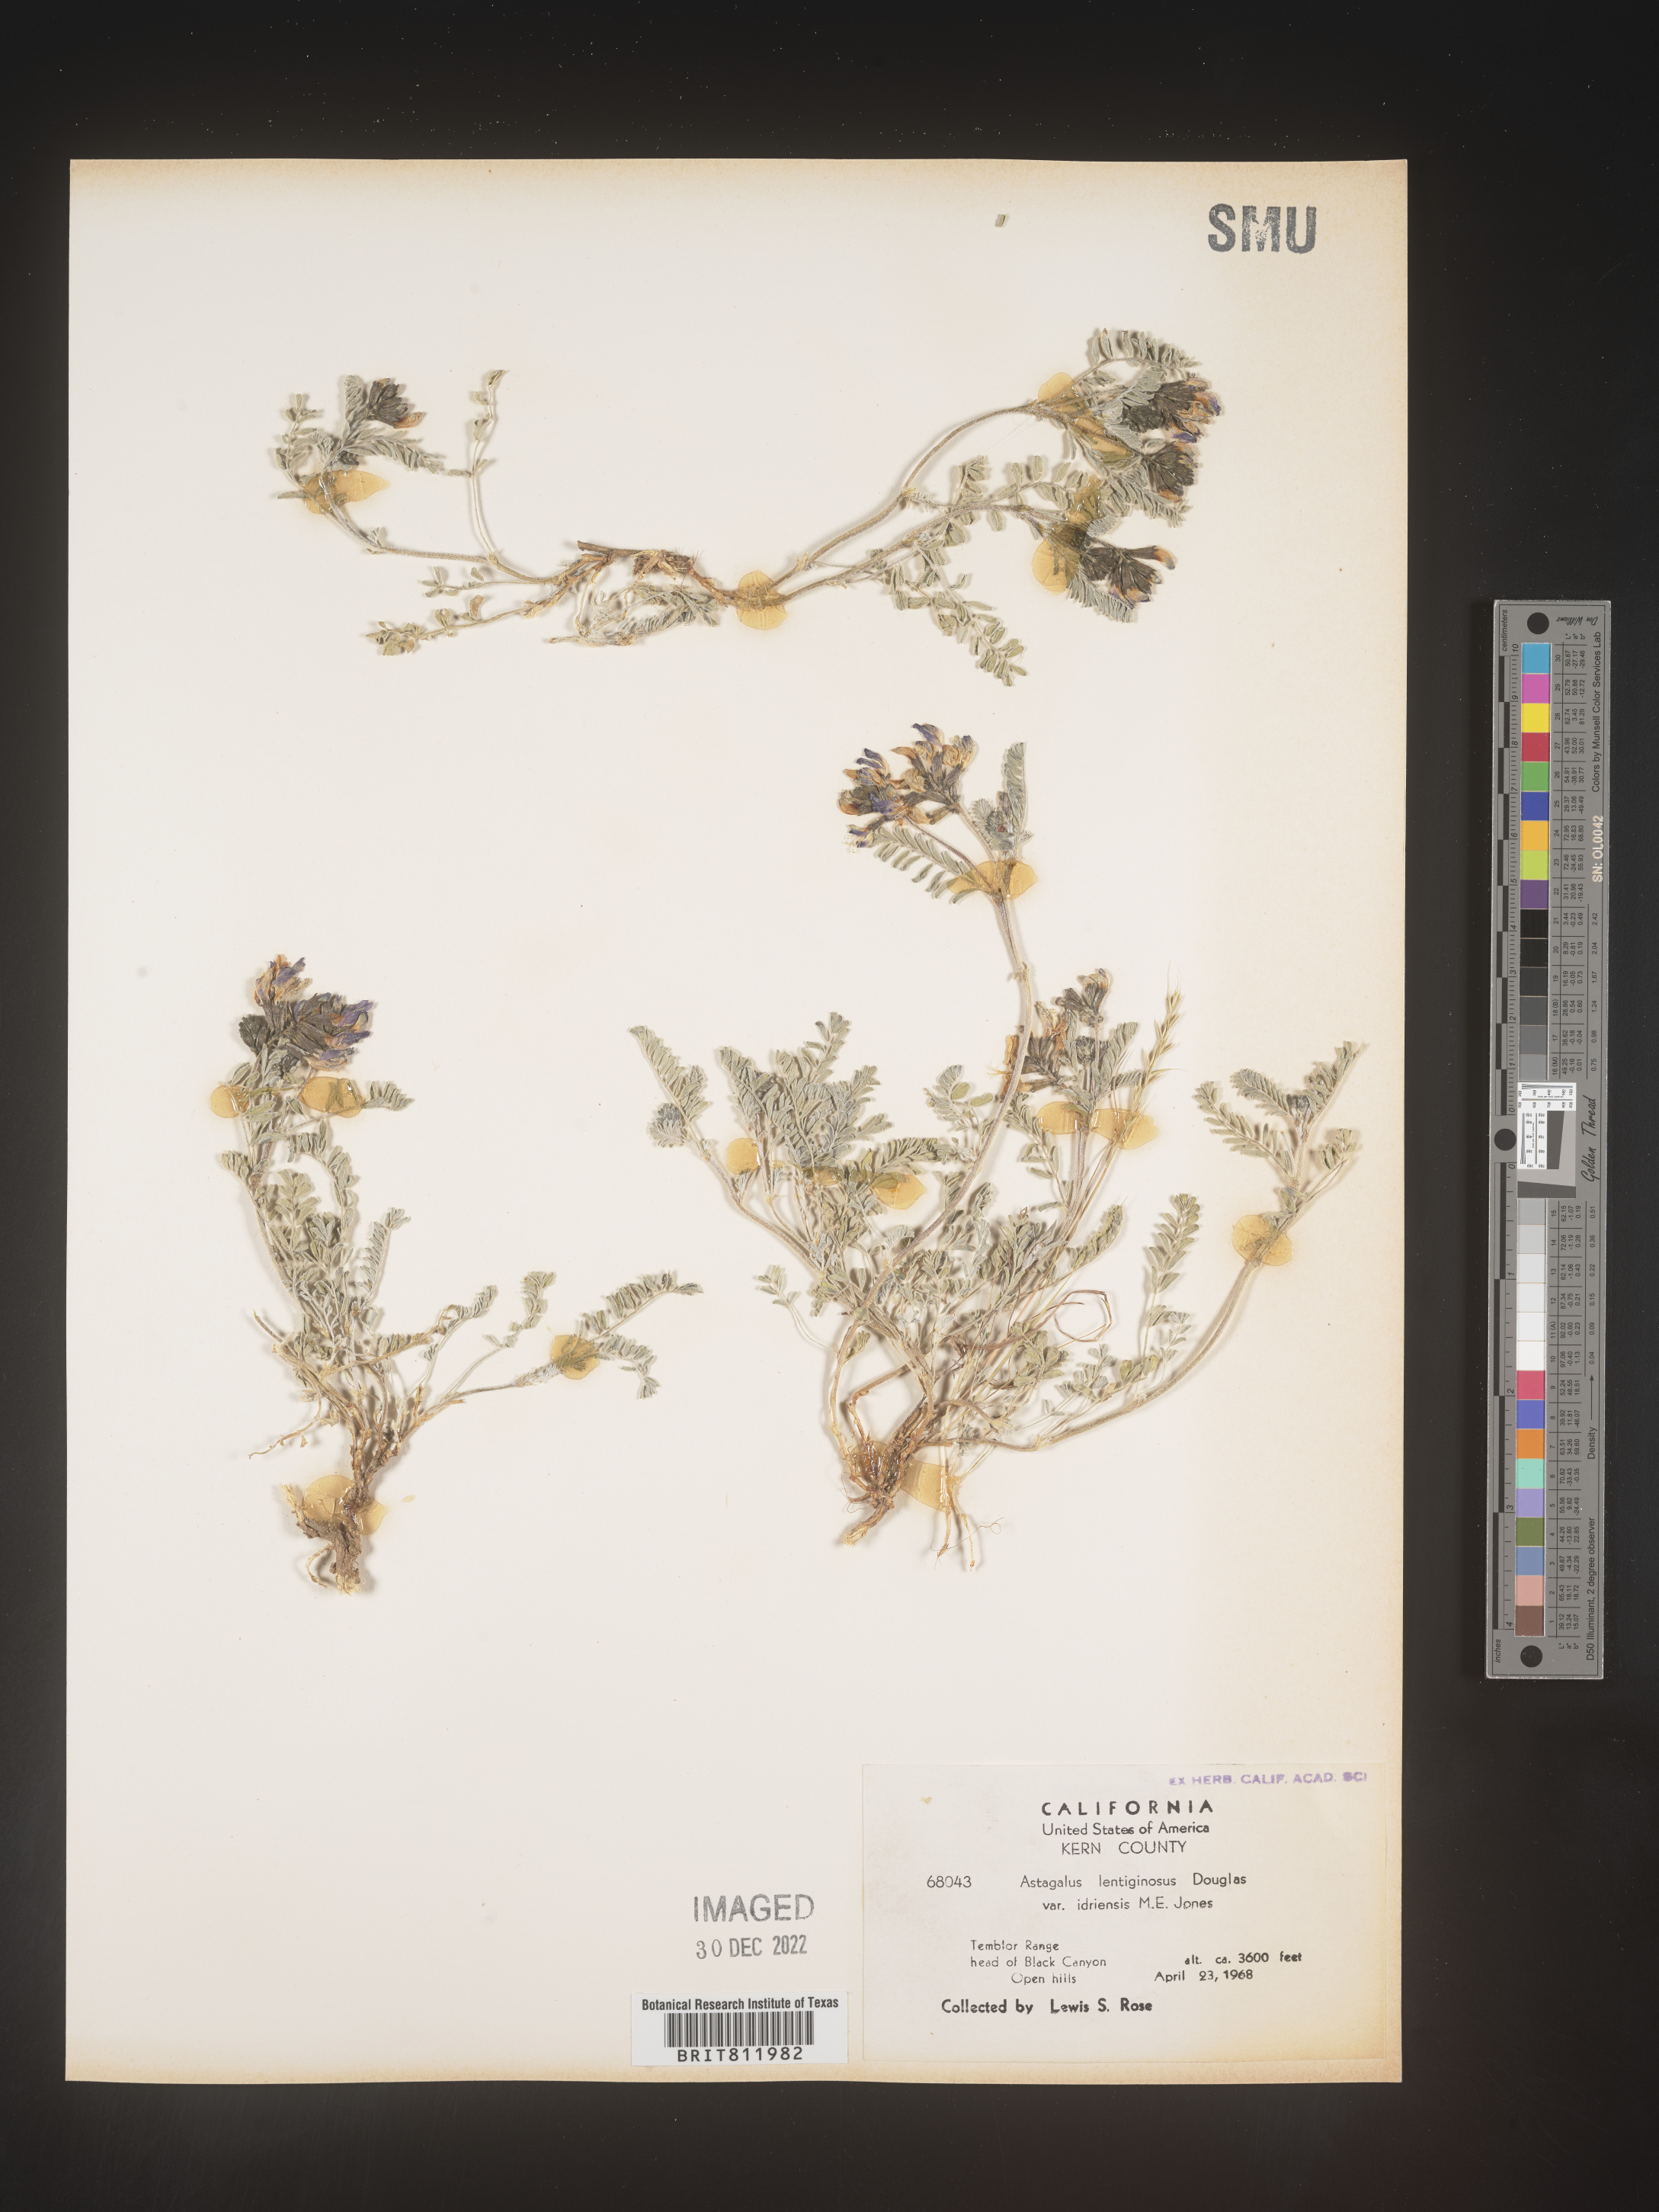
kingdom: Plantae
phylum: Tracheophyta
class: Magnoliopsida
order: Fabales
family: Fabaceae
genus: Astragalus
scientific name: Astragalus lentiginosus
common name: Freckled milkvetch
